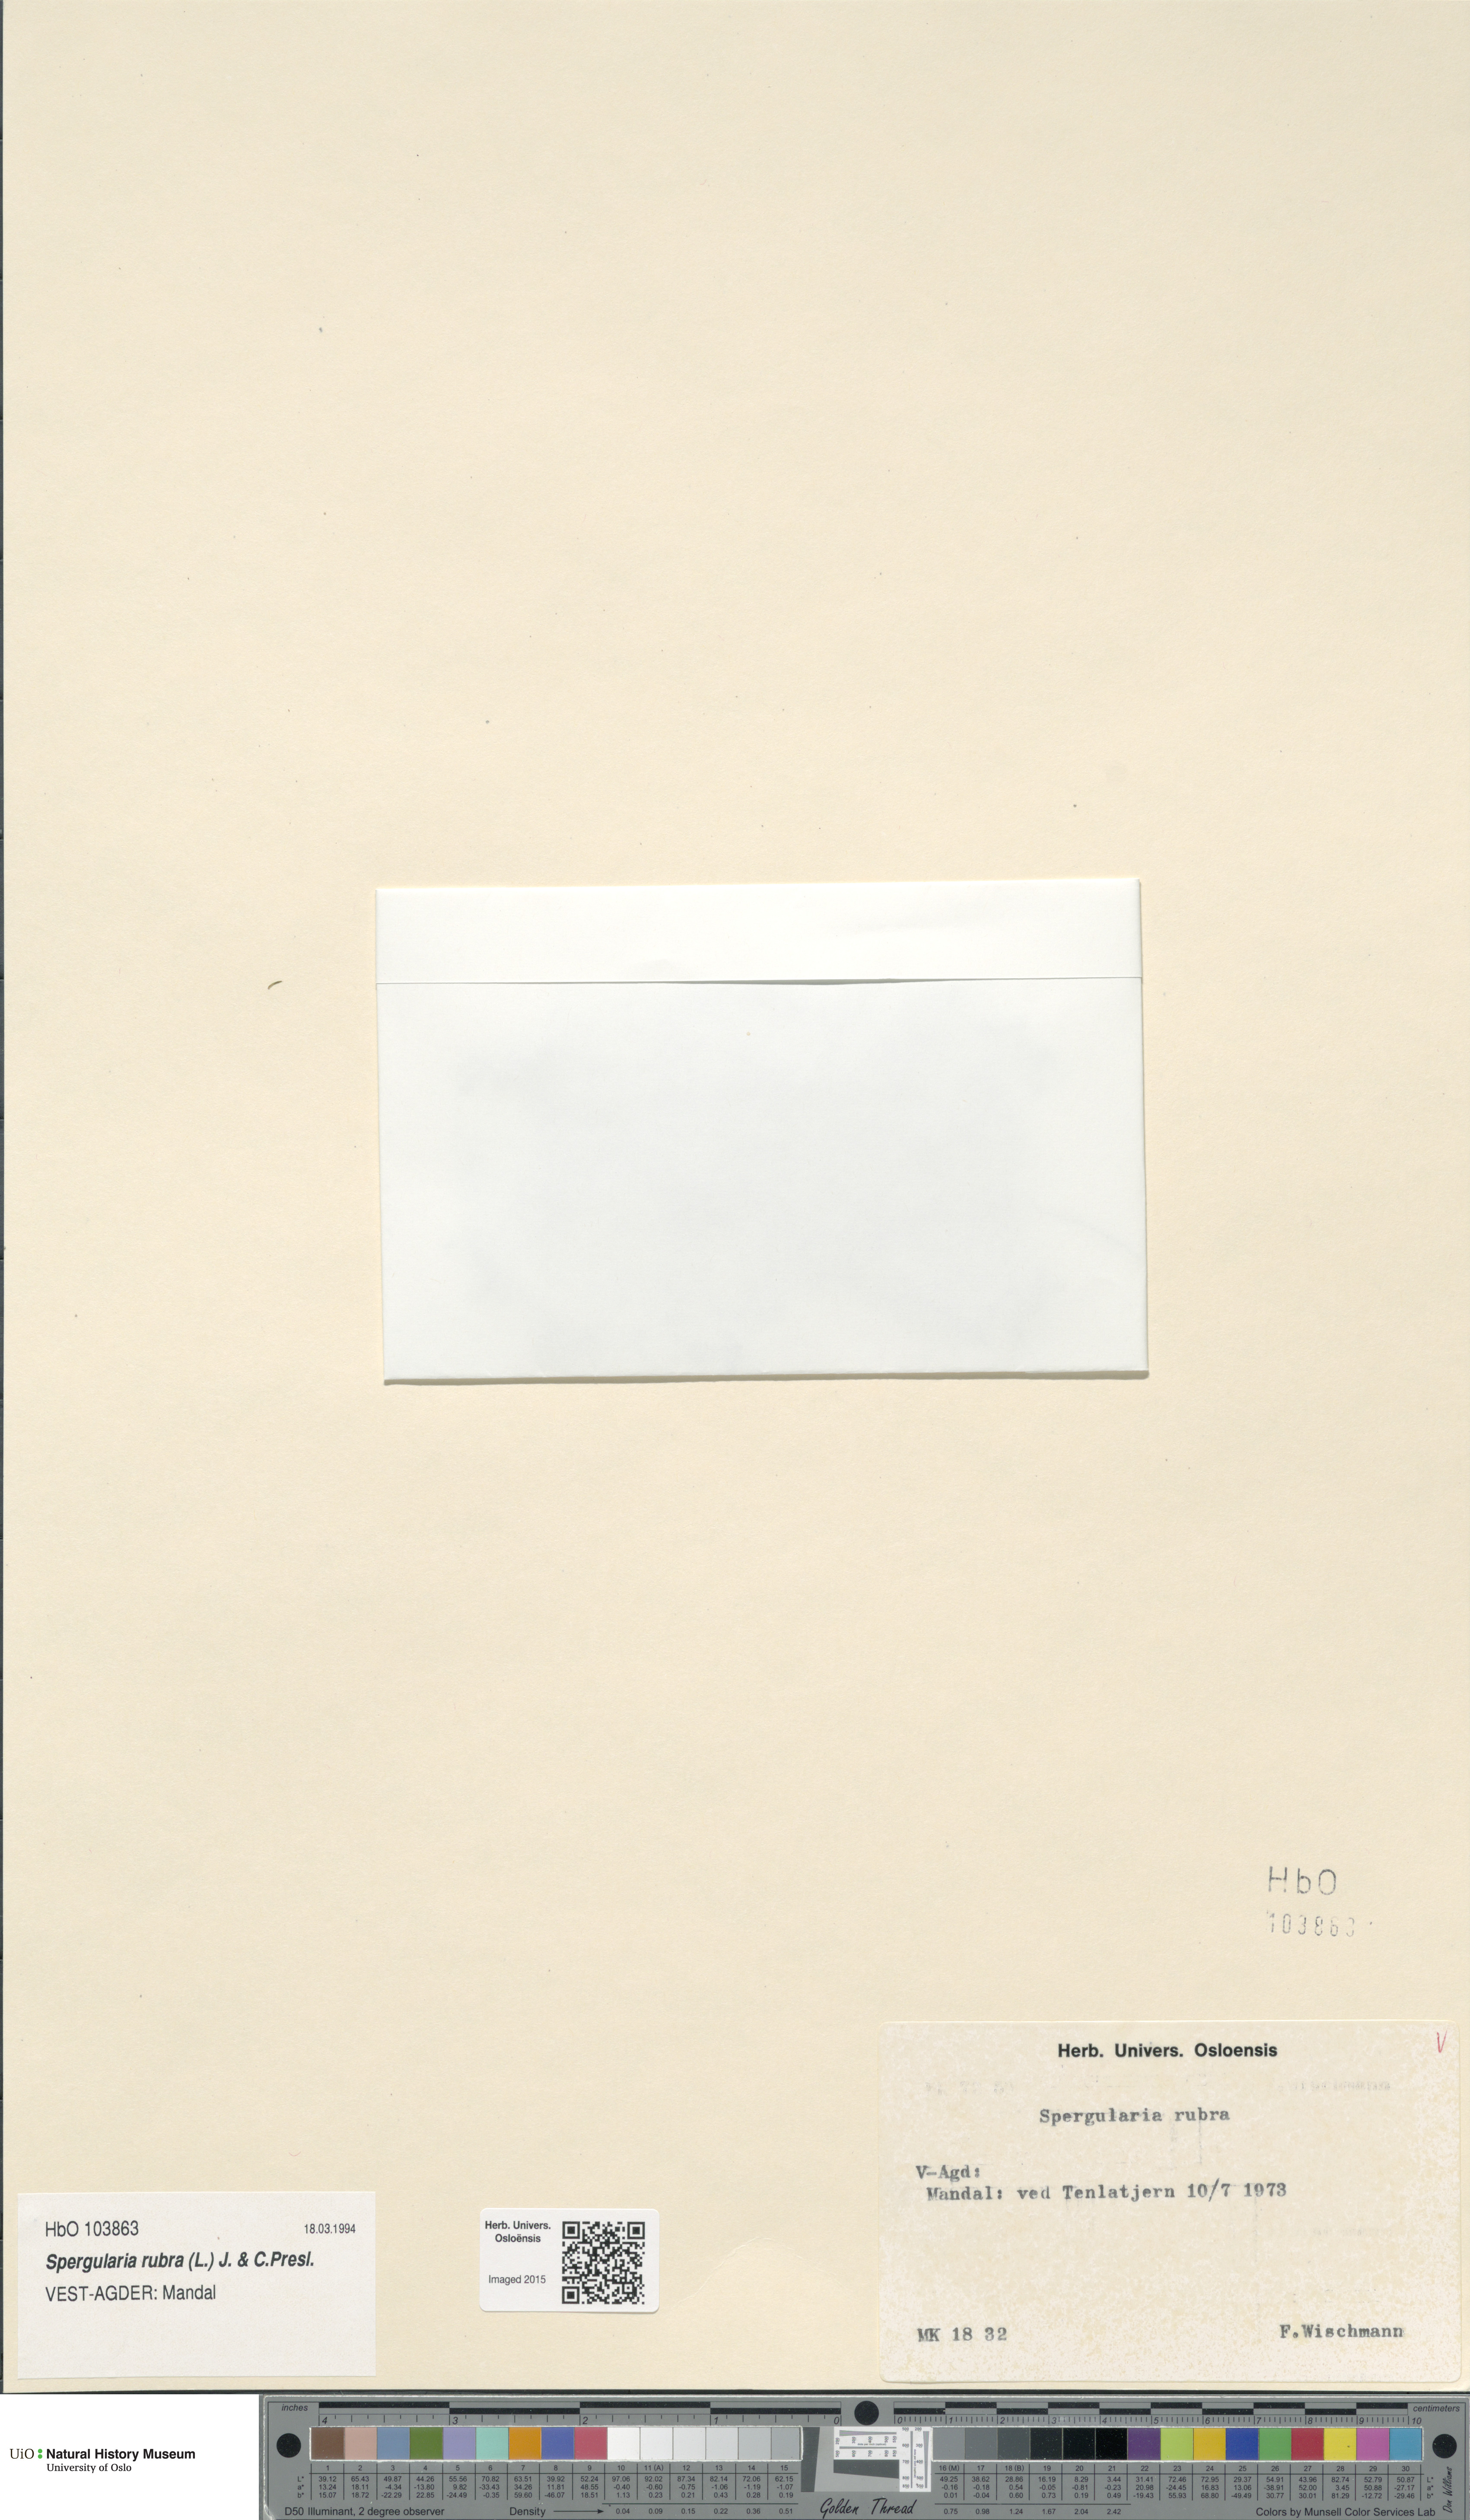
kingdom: Plantae
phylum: Tracheophyta
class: Magnoliopsida
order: Caryophyllales
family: Caryophyllaceae
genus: Spergularia
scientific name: Spergularia rubra
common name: Red sand-spurrey
